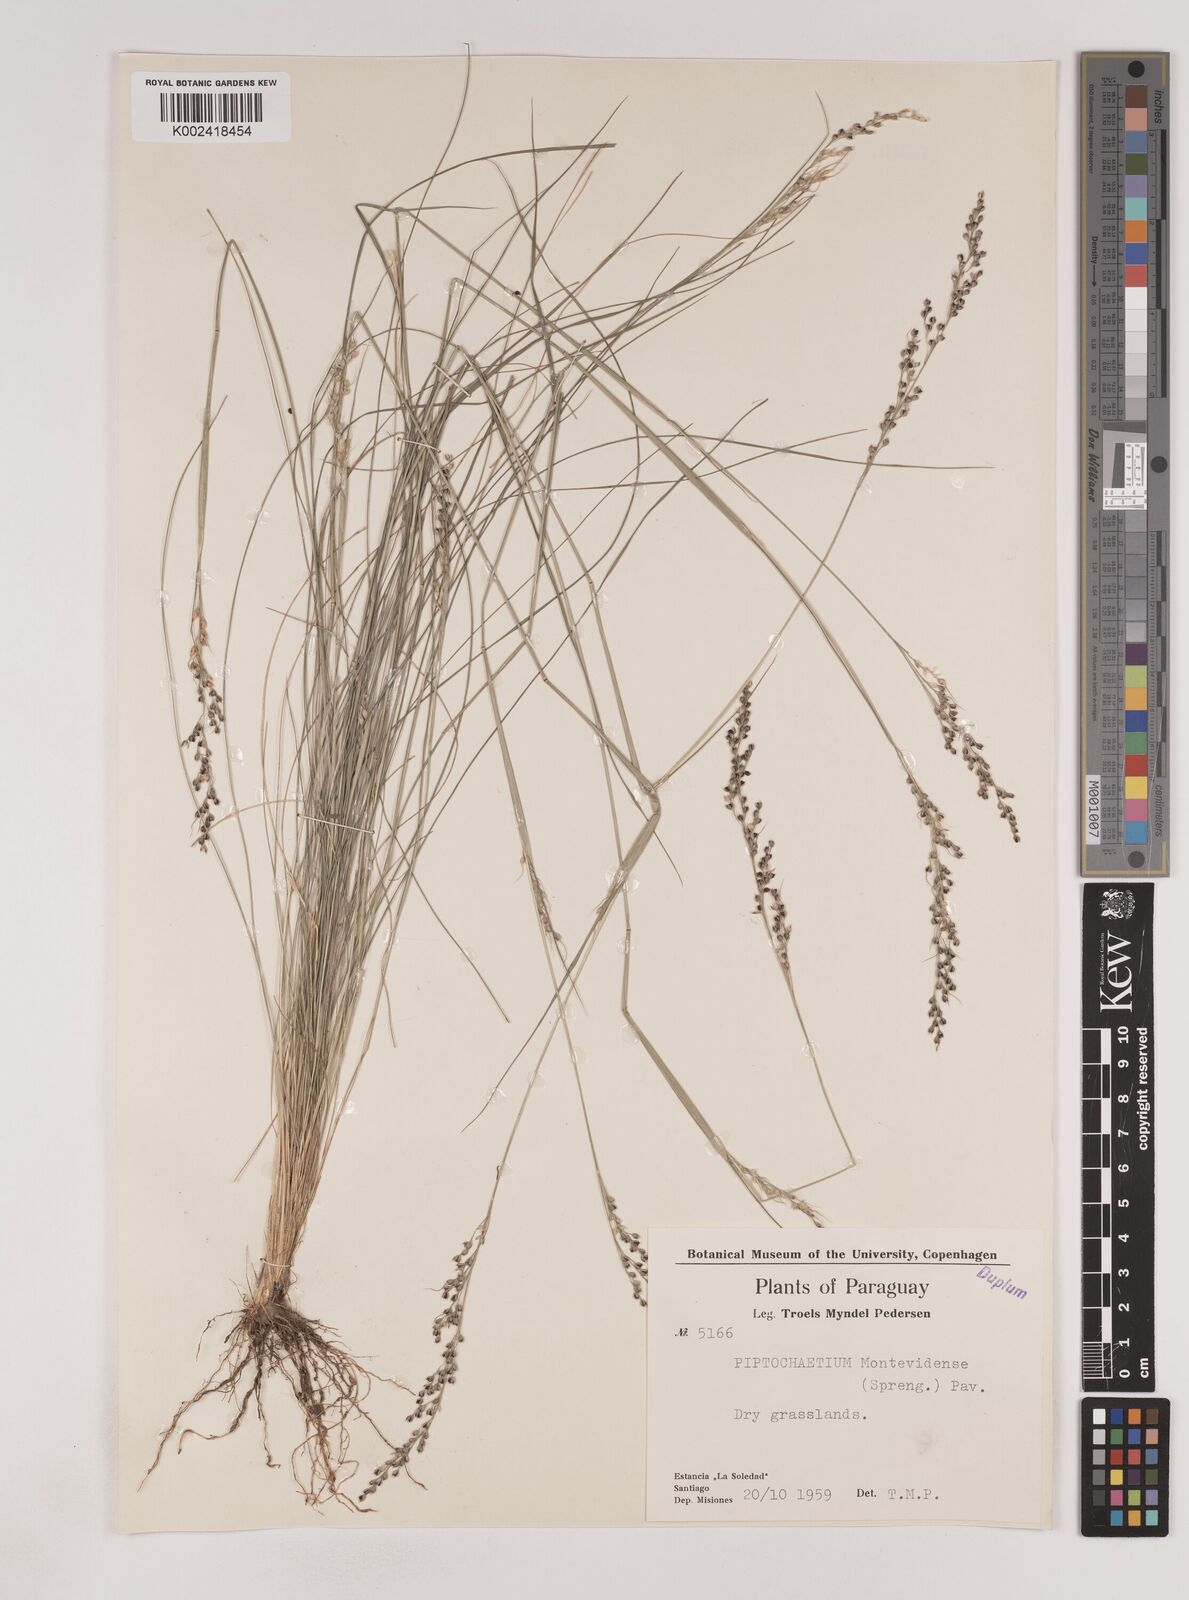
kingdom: Plantae
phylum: Tracheophyta
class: Liliopsida
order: Poales
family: Poaceae
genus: Piptochaetium
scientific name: Piptochaetium montevidense
